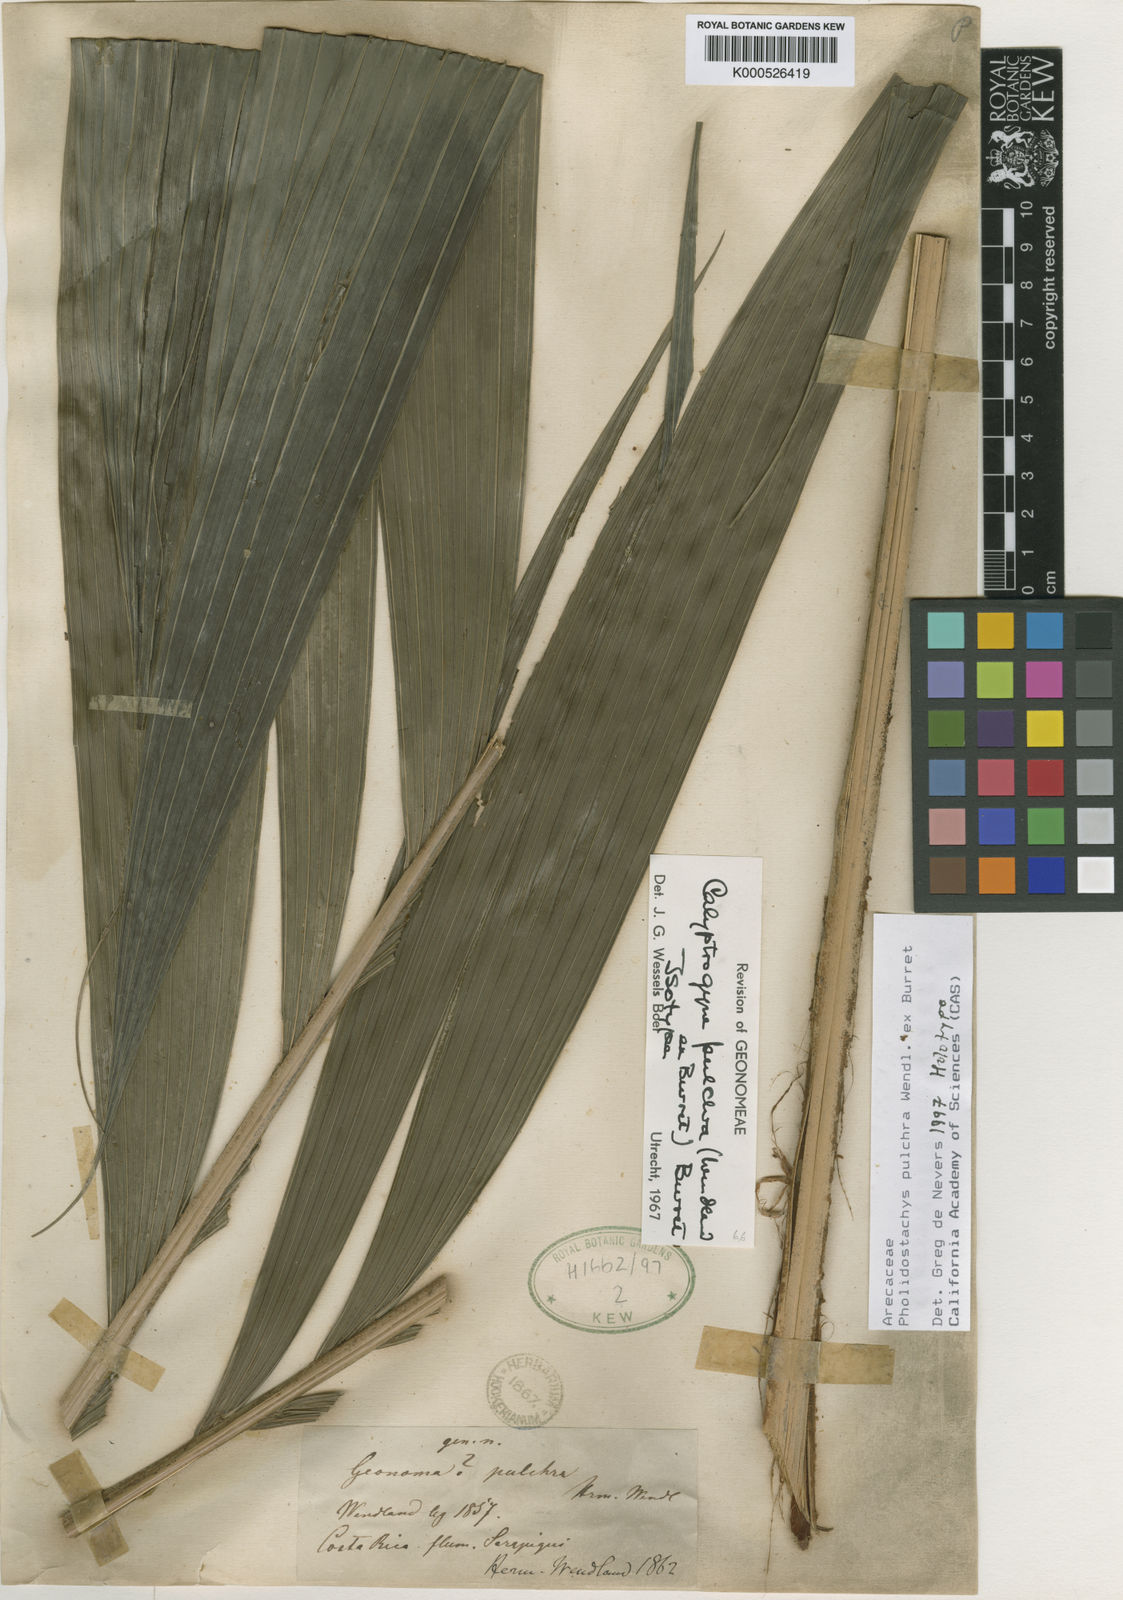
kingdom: Plantae
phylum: Tracheophyta
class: Liliopsida
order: Arecales
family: Arecaceae
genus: Pholidostachys
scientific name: Pholidostachys
